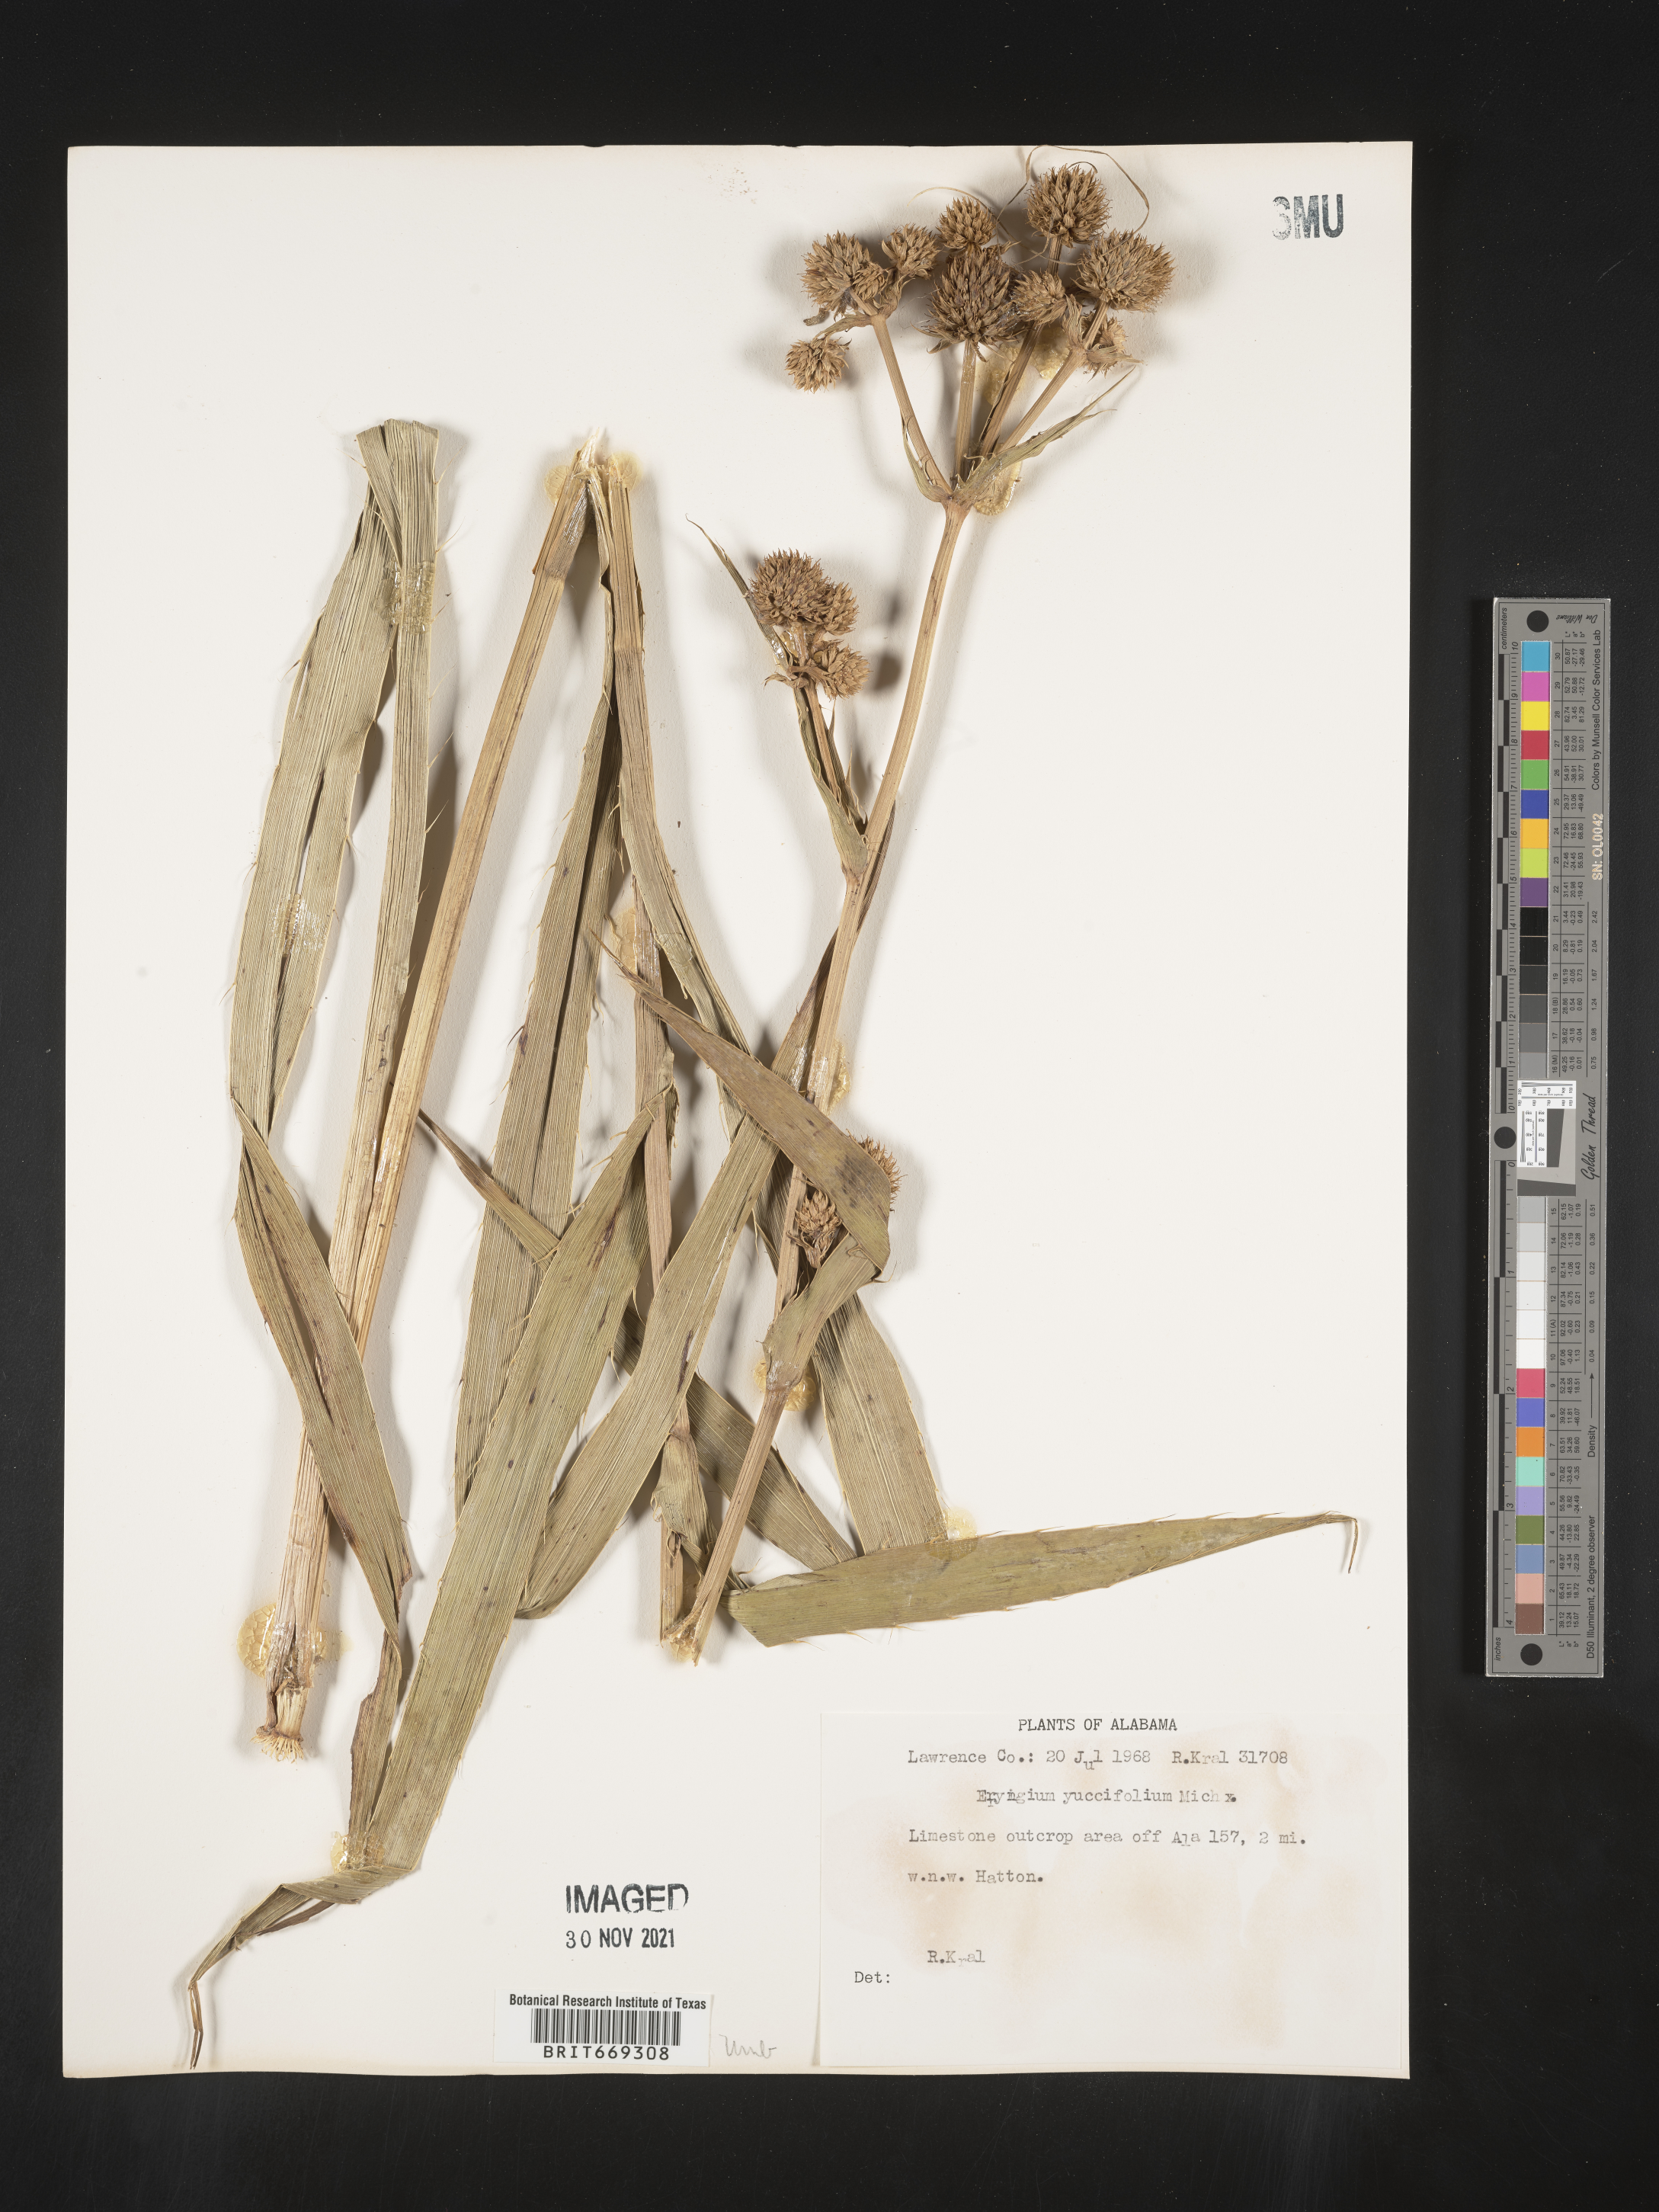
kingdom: Plantae
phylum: Tracheophyta
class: Magnoliopsida
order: Apiales
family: Apiaceae
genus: Eryngium
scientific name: Eryngium yuccifolium
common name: Button eryngo
